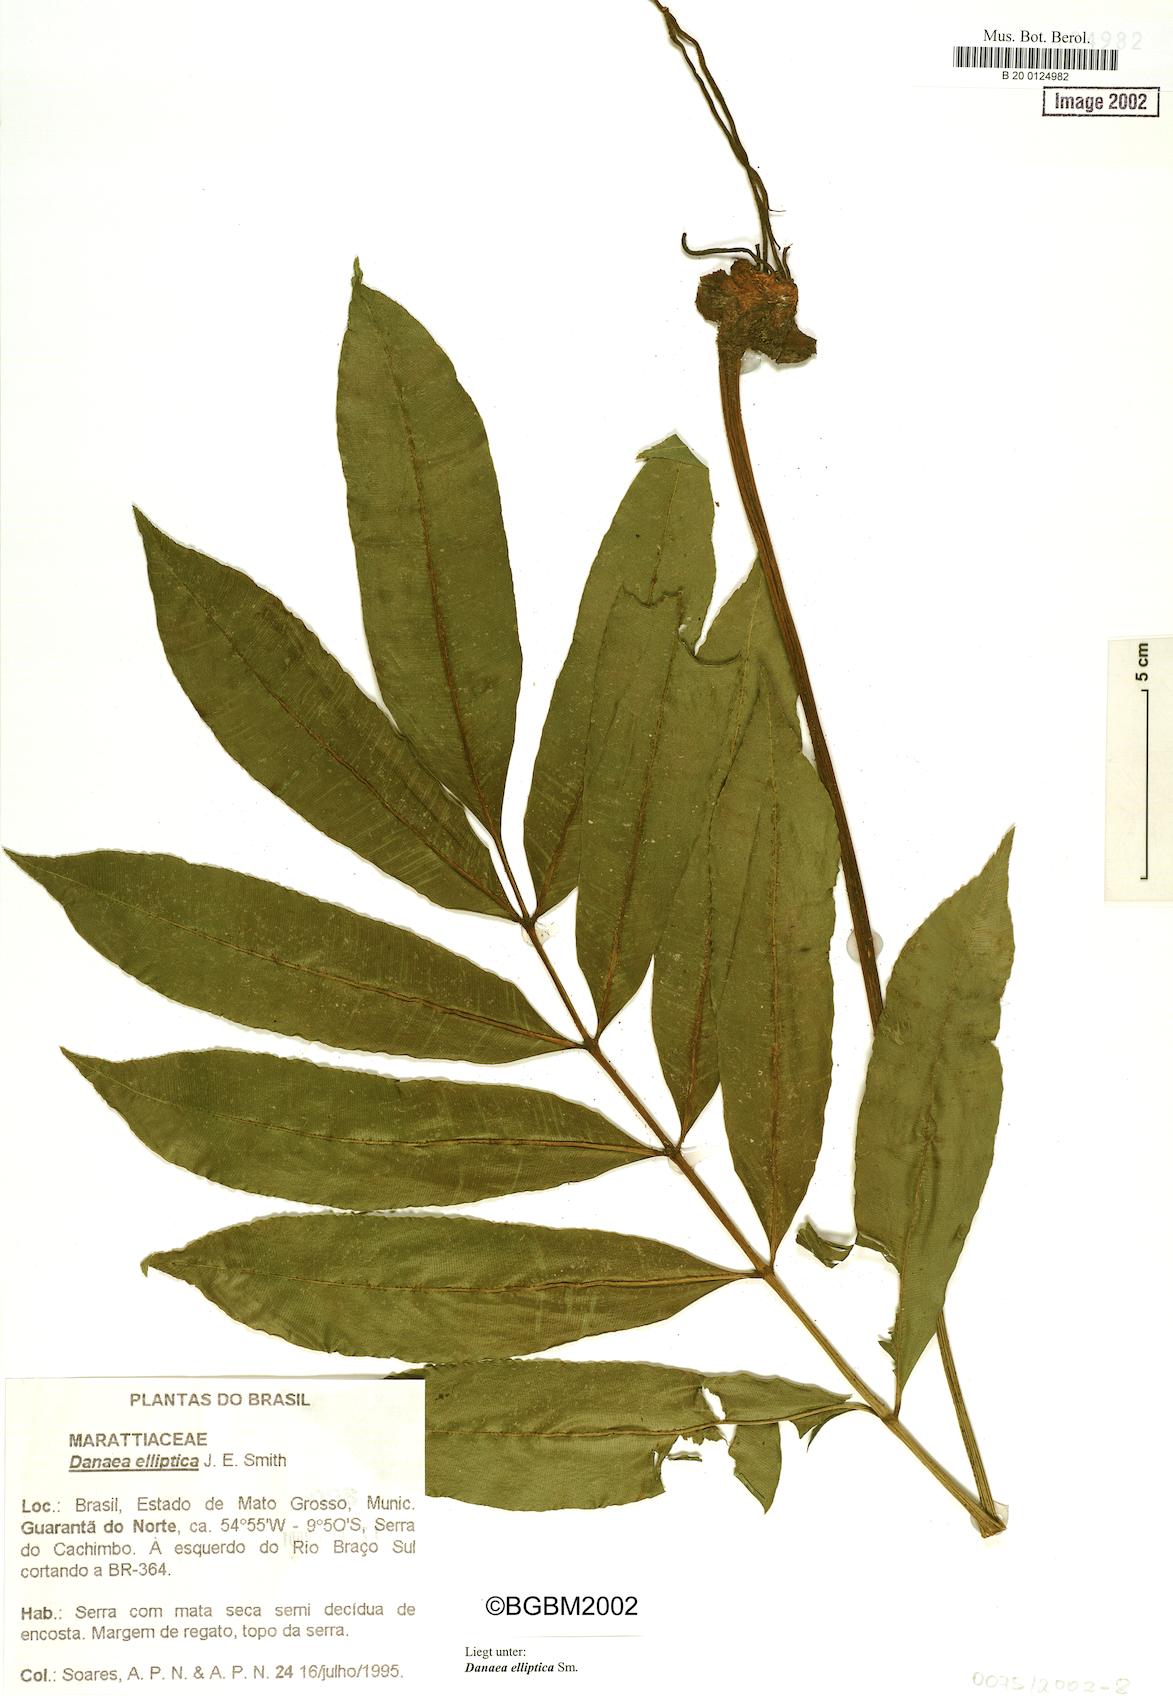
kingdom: Plantae
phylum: Tracheophyta
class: Polypodiopsida
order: Marattiales
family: Marattiaceae
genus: Danaea
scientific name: Danaea nodosa
